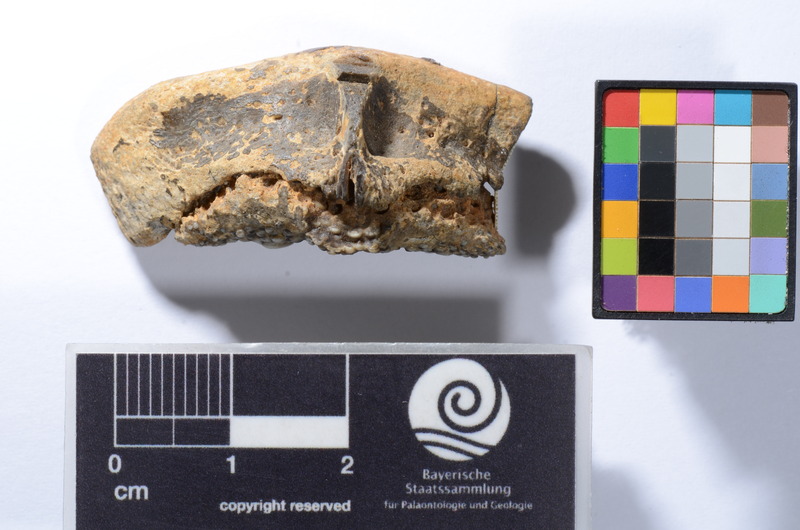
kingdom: Animalia
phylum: Chordata
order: Perciformes
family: Labridae
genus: Labrodon
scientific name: Labrodon multidens
